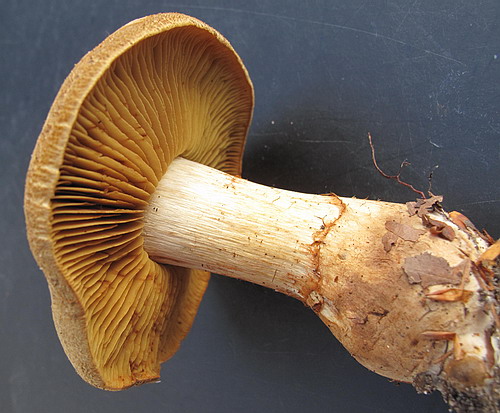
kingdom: Fungi
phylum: Basidiomycota
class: Agaricomycetes
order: Agaricales
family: Cortinariaceae
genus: Cortinarius
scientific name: Cortinarius cotoneus
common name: ulden slørhat
